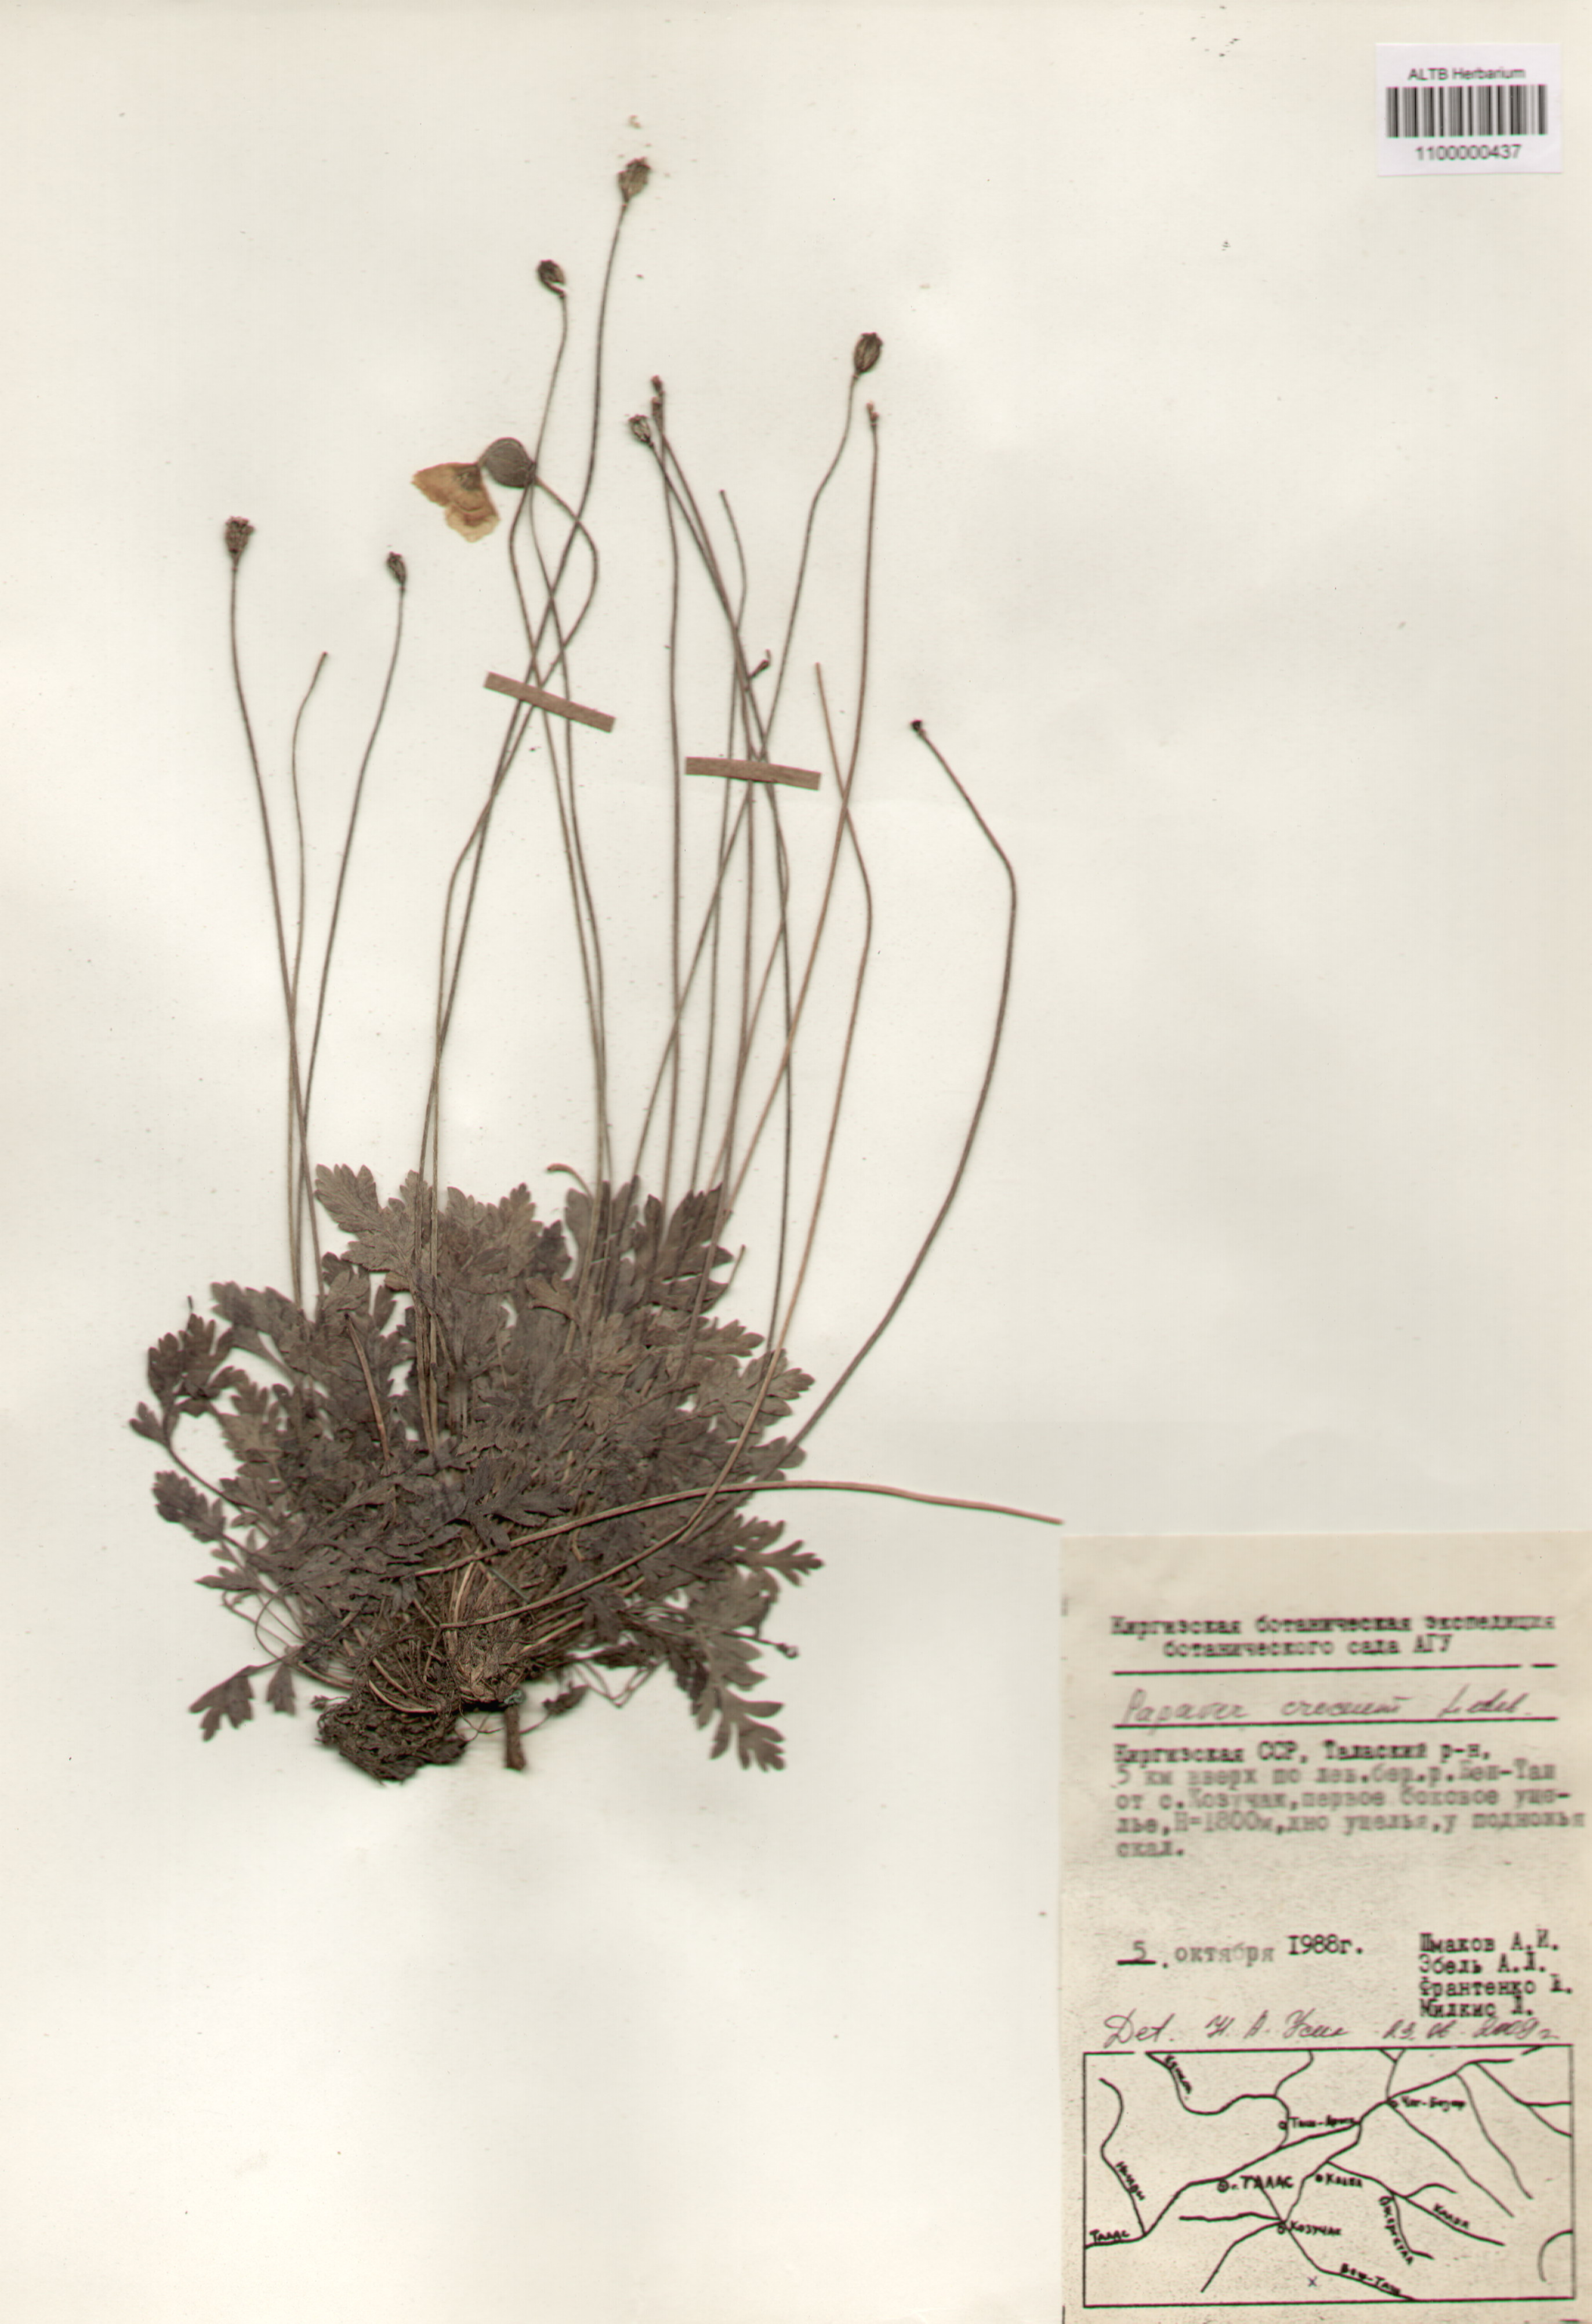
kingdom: Plantae
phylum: Tracheophyta
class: Magnoliopsida
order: Ranunculales
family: Papaveraceae
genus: Papaver
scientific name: Papaver croceum
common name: Siberian poppy
